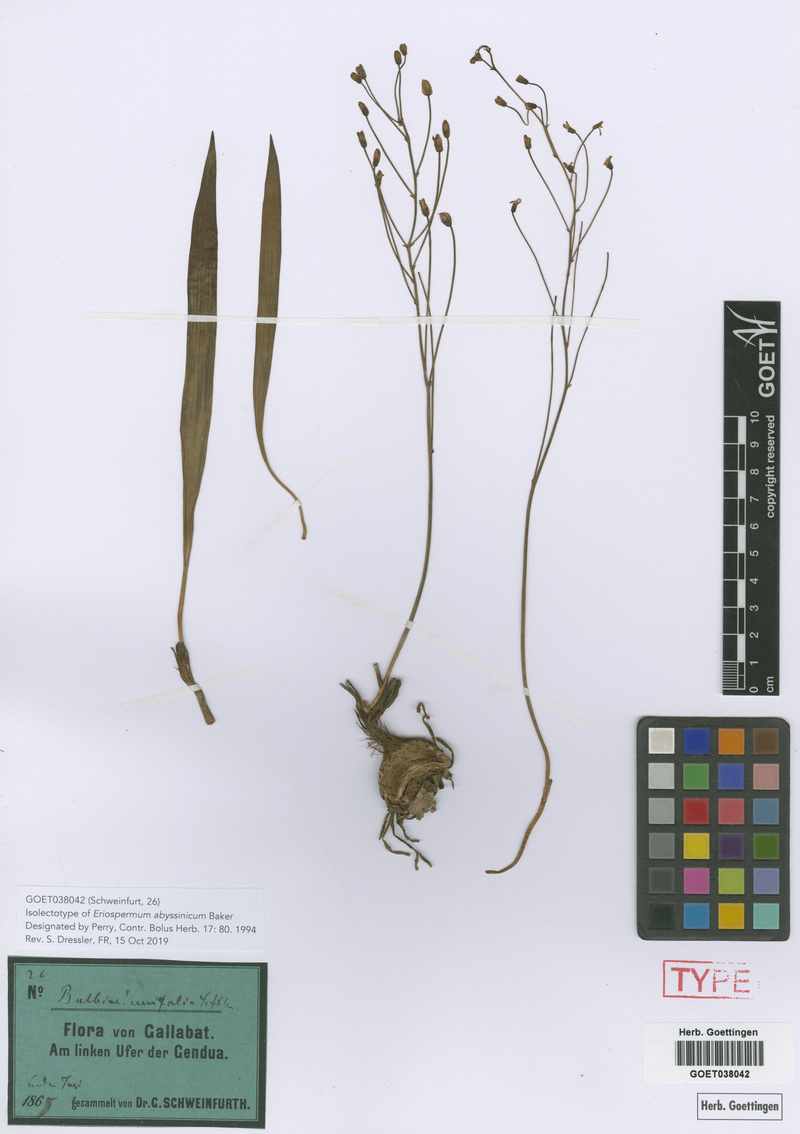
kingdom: Plantae
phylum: Tracheophyta
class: Liliopsida
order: Asparagales
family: Asparagaceae
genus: Eriospermum
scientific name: Eriospermum abyssinicum
